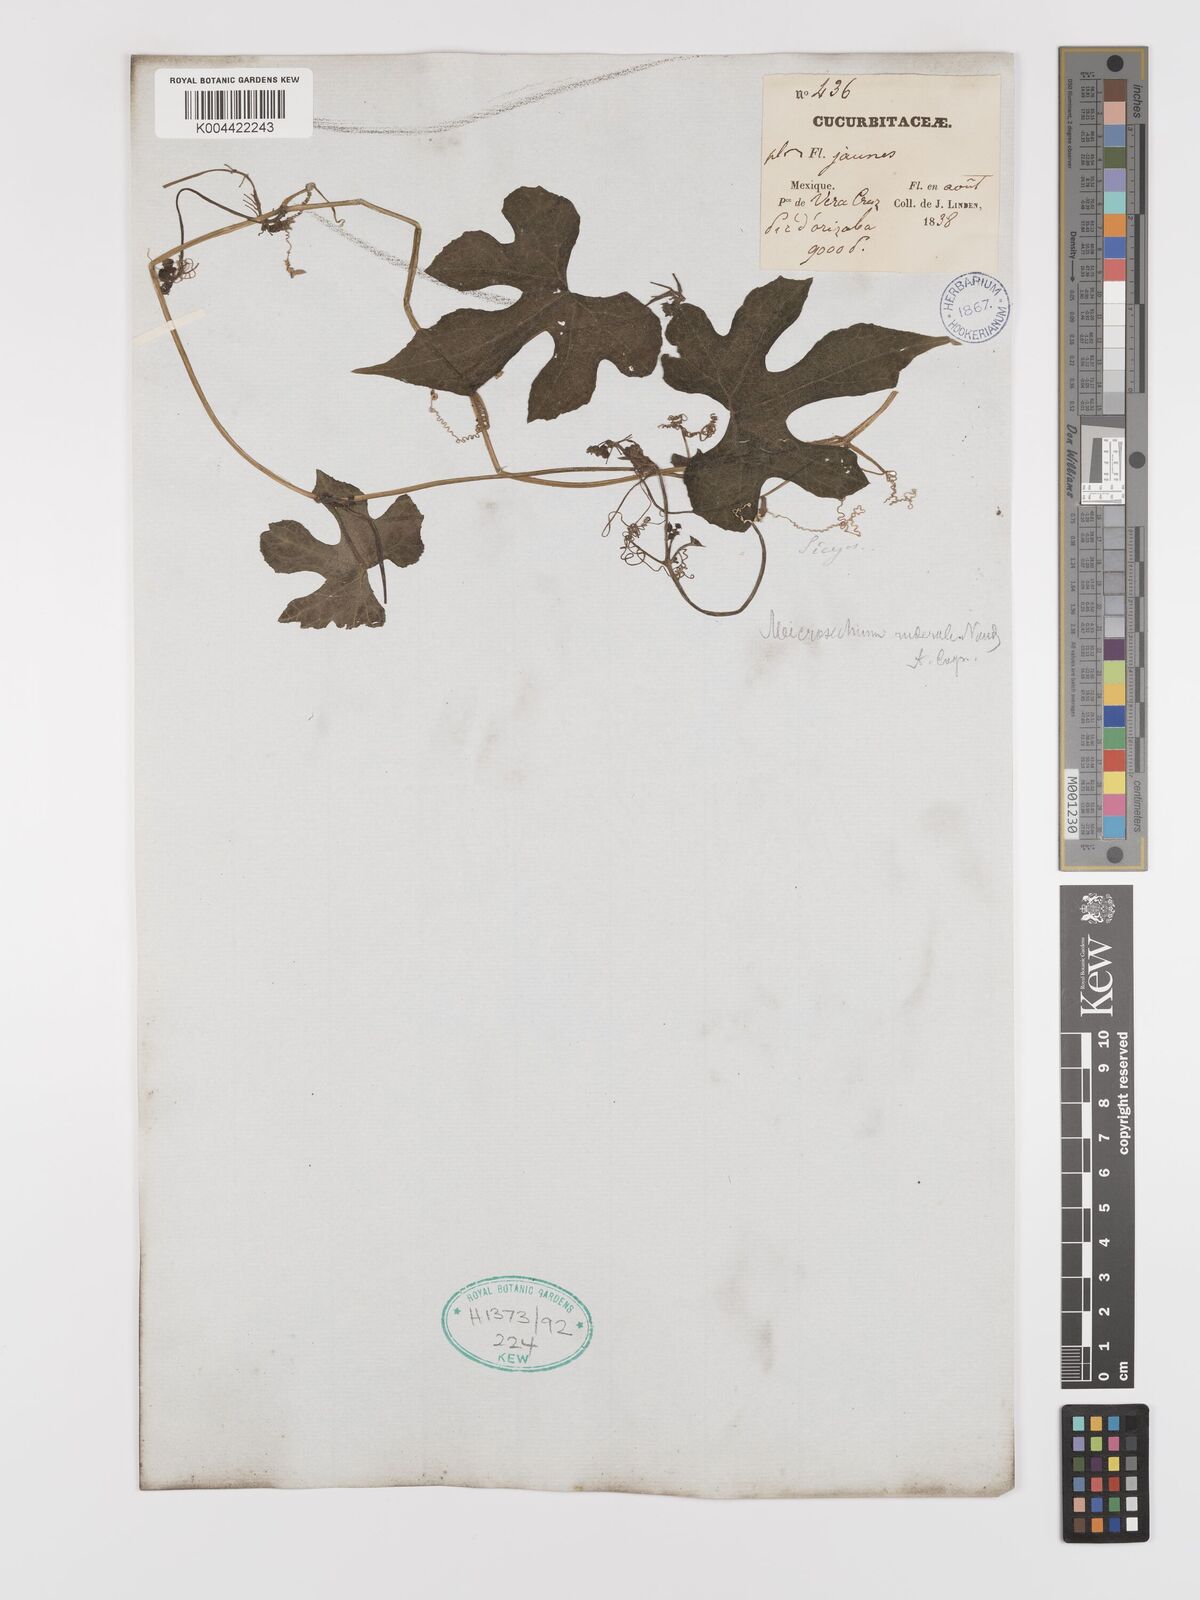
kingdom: Plantae
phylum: Tracheophyta
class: Magnoliopsida
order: Cucurbitales
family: Cucurbitaceae
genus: Microsechium
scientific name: Microsechium palmatum
